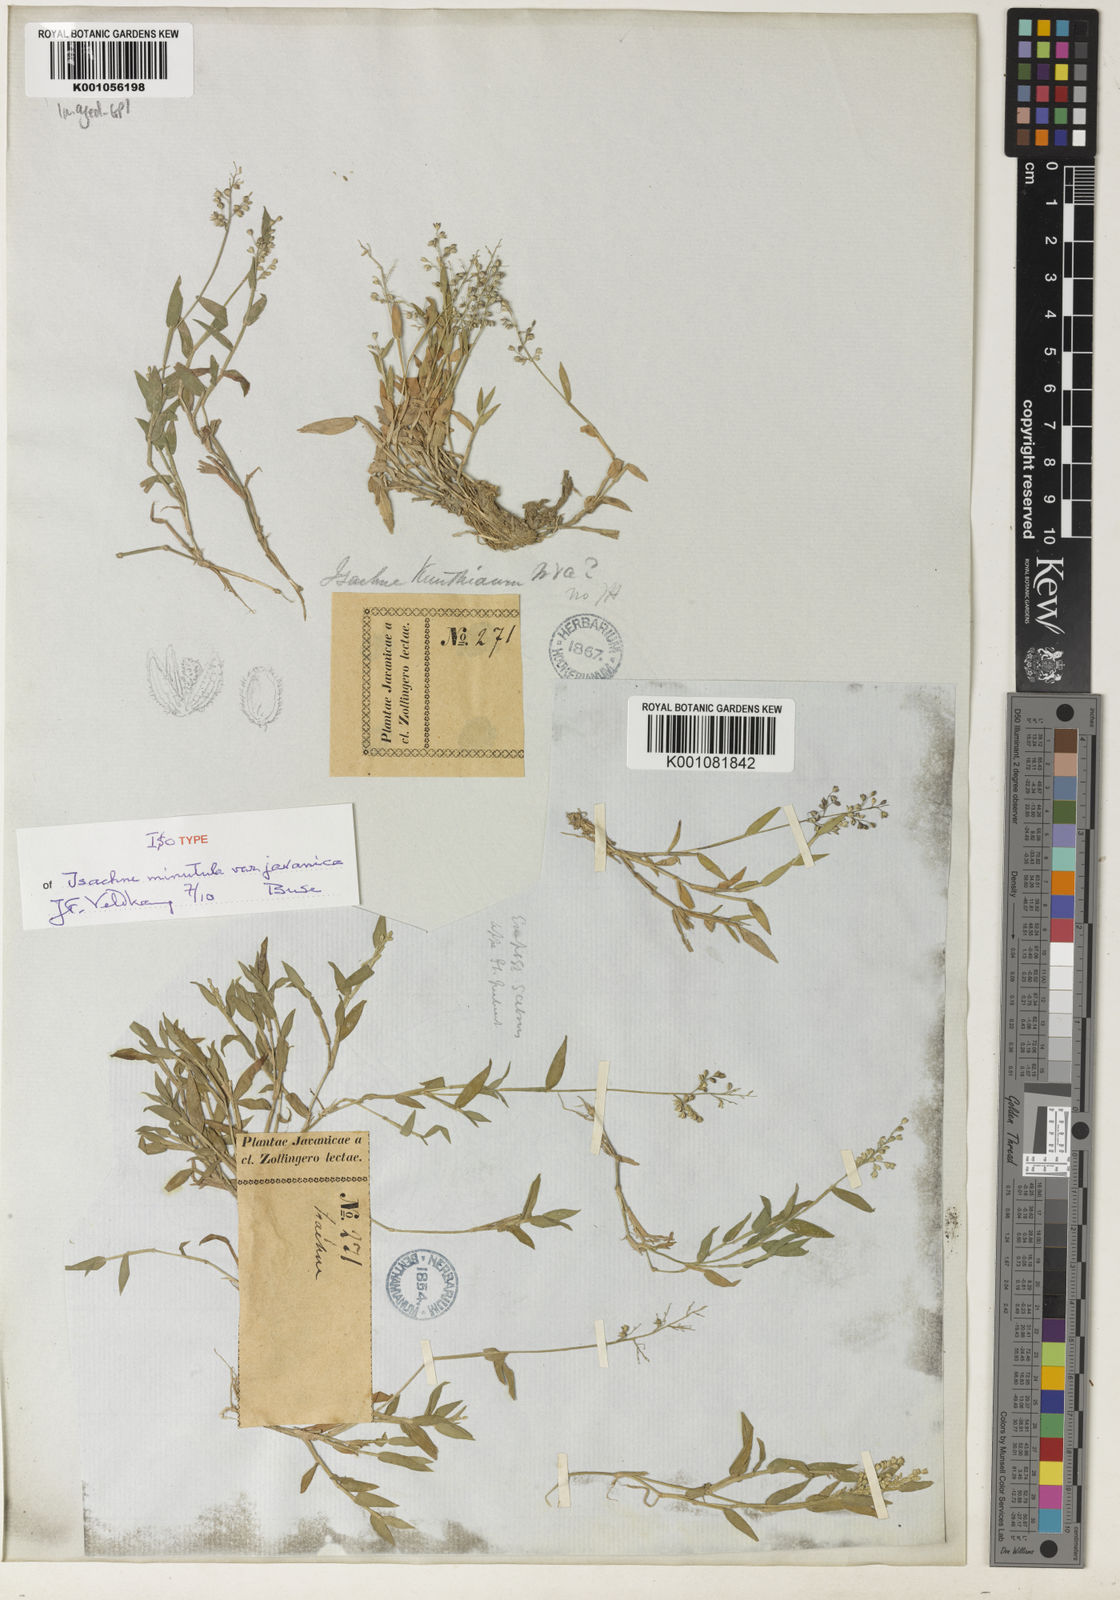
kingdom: Plantae
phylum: Tracheophyta
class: Liliopsida
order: Poales
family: Poaceae
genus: Isachne
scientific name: Isachne minutula
